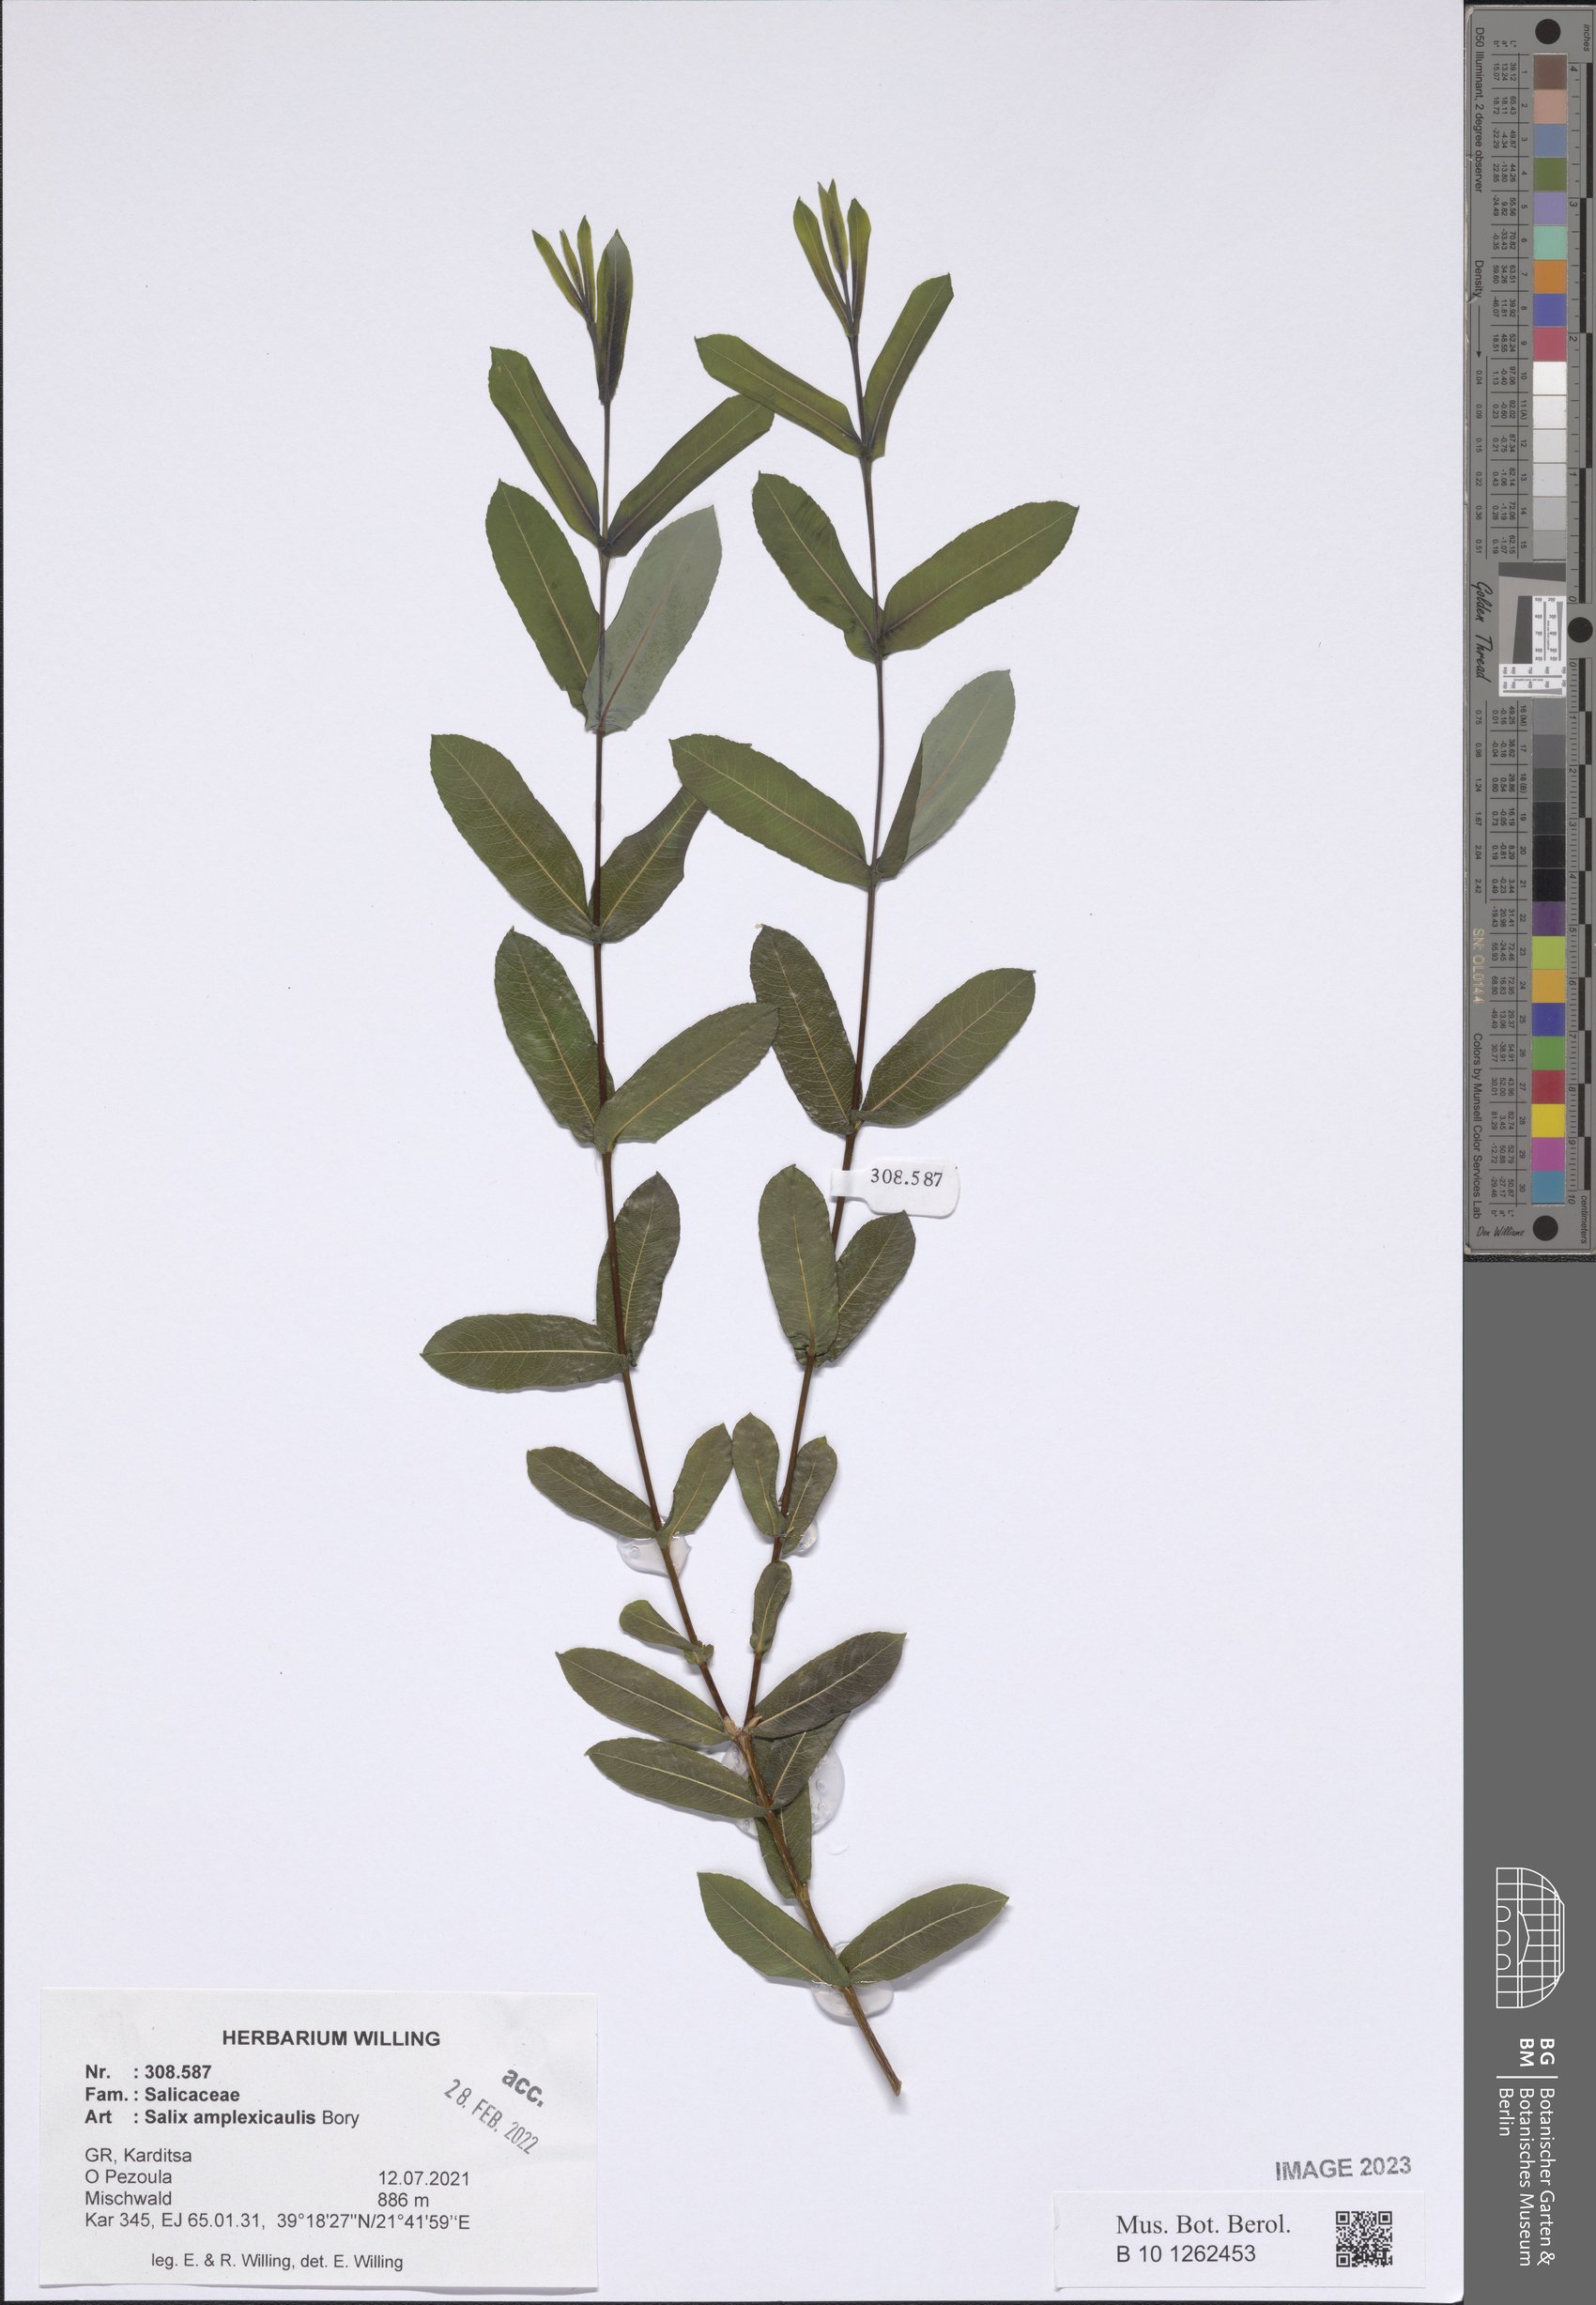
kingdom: Plantae
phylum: Tracheophyta
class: Magnoliopsida
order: Malpighiales
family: Salicaceae
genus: Salix
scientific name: Salix amplexicaulis
